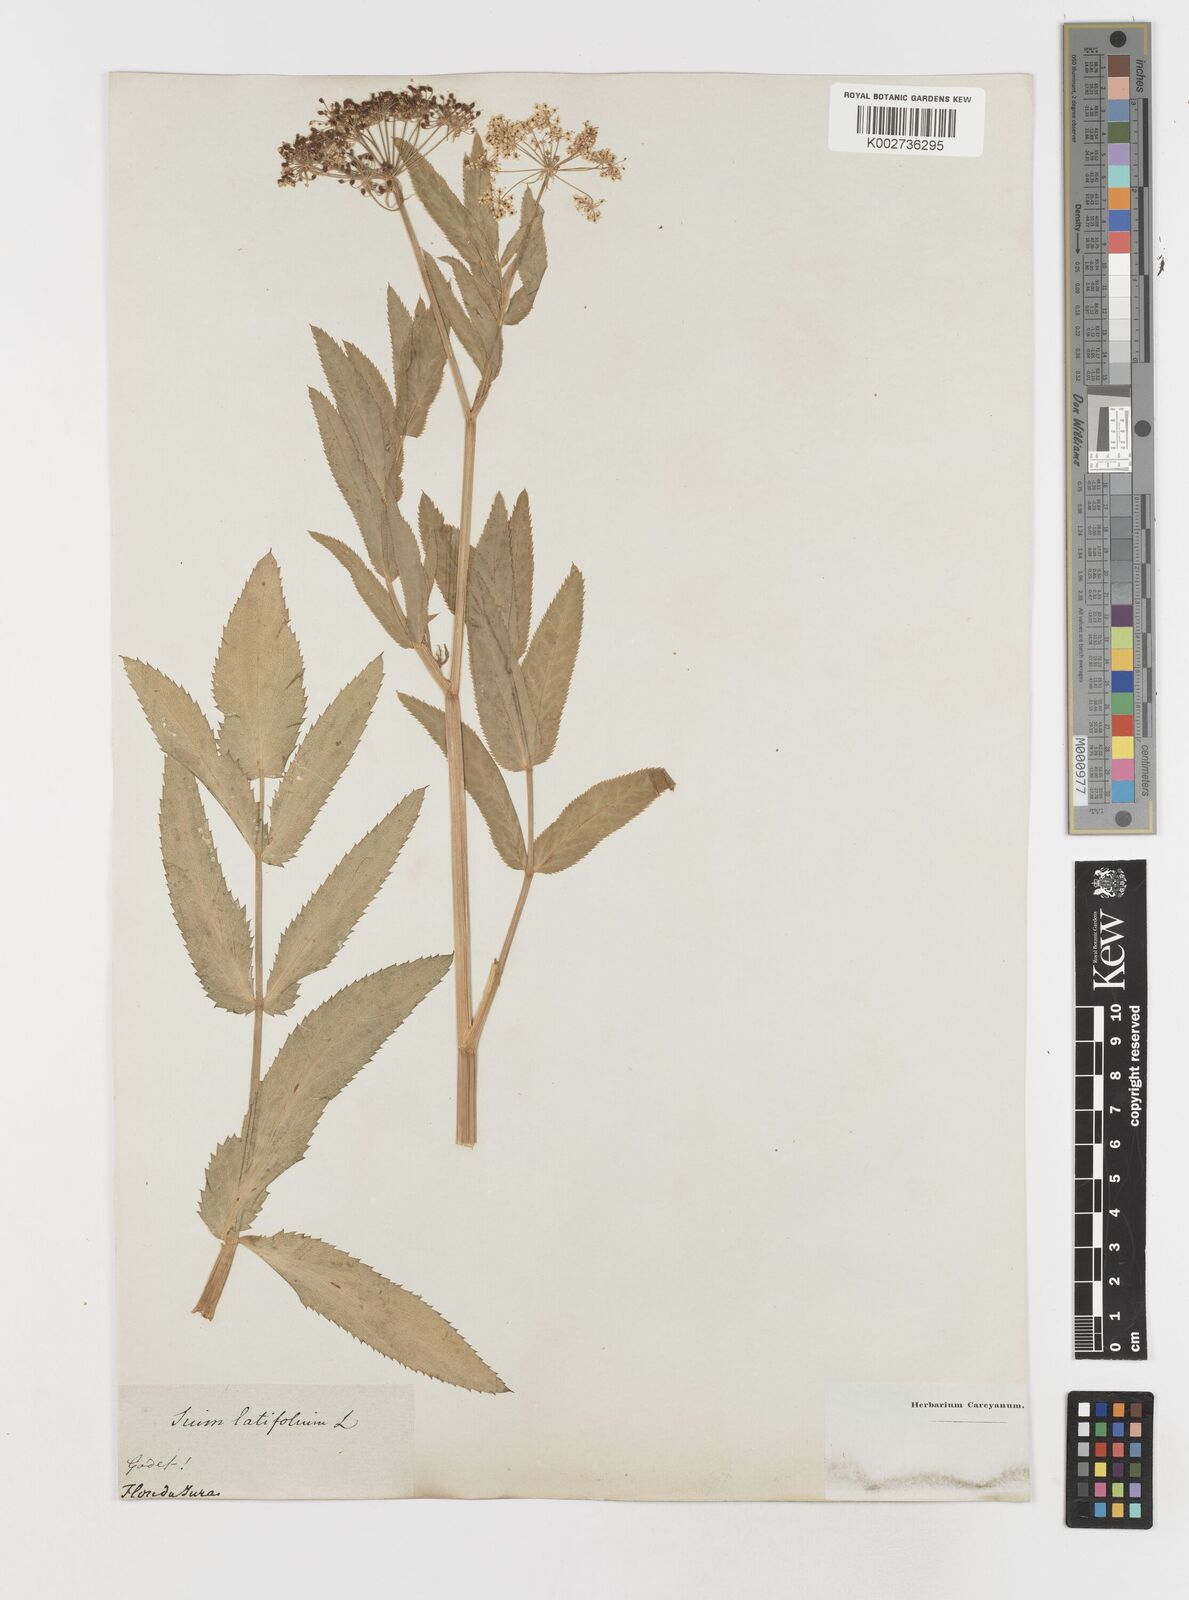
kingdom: Plantae
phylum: Tracheophyta
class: Magnoliopsida
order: Apiales
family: Apiaceae
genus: Sium
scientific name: Sium latifolium
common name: Greater water-parsnip
